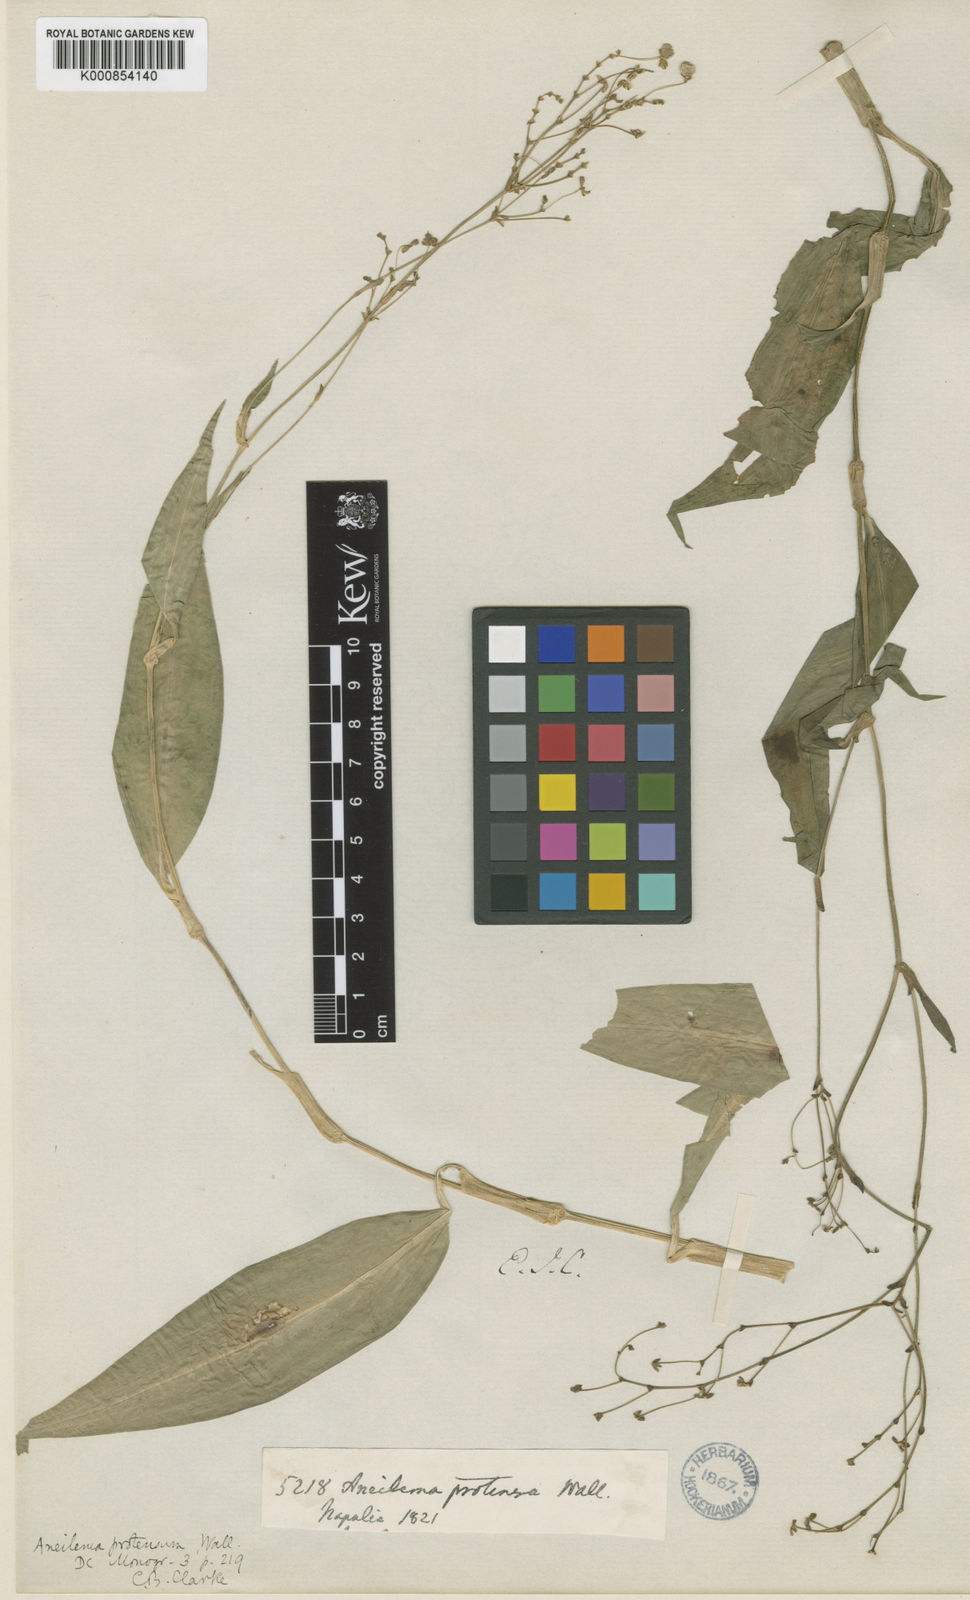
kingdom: Plantae
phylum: Tracheophyta
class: Liliopsida
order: Commelinales
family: Commelinaceae
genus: Rhopalephora
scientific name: Rhopalephora scaberrima
